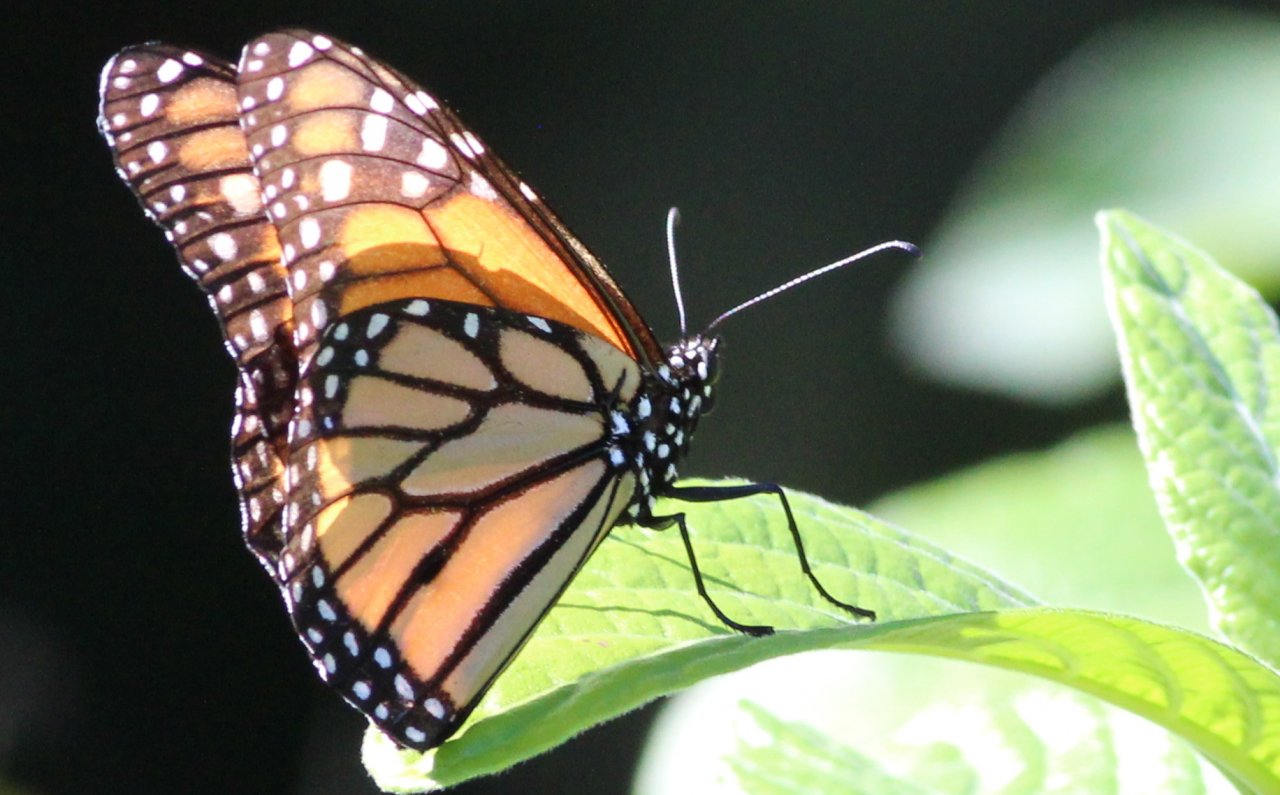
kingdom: Animalia
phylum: Arthropoda
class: Insecta
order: Lepidoptera
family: Nymphalidae
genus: Danaus
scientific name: Danaus plexippus
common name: Monarch
